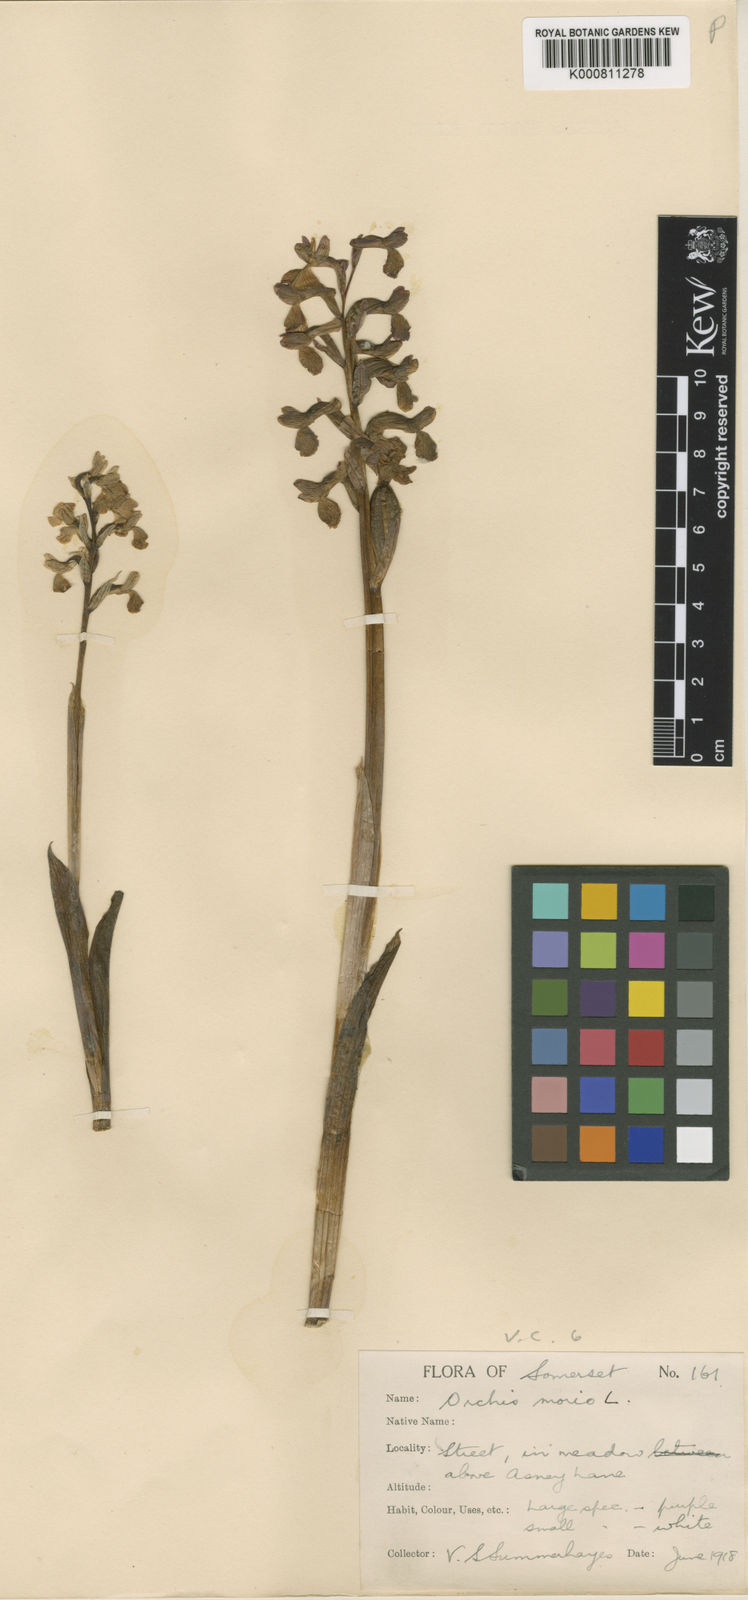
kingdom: Plantae
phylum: Tracheophyta
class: Liliopsida
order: Asparagales
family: Orchidaceae
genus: Anacamptis
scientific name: Anacamptis morio
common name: Green-winged orchid
